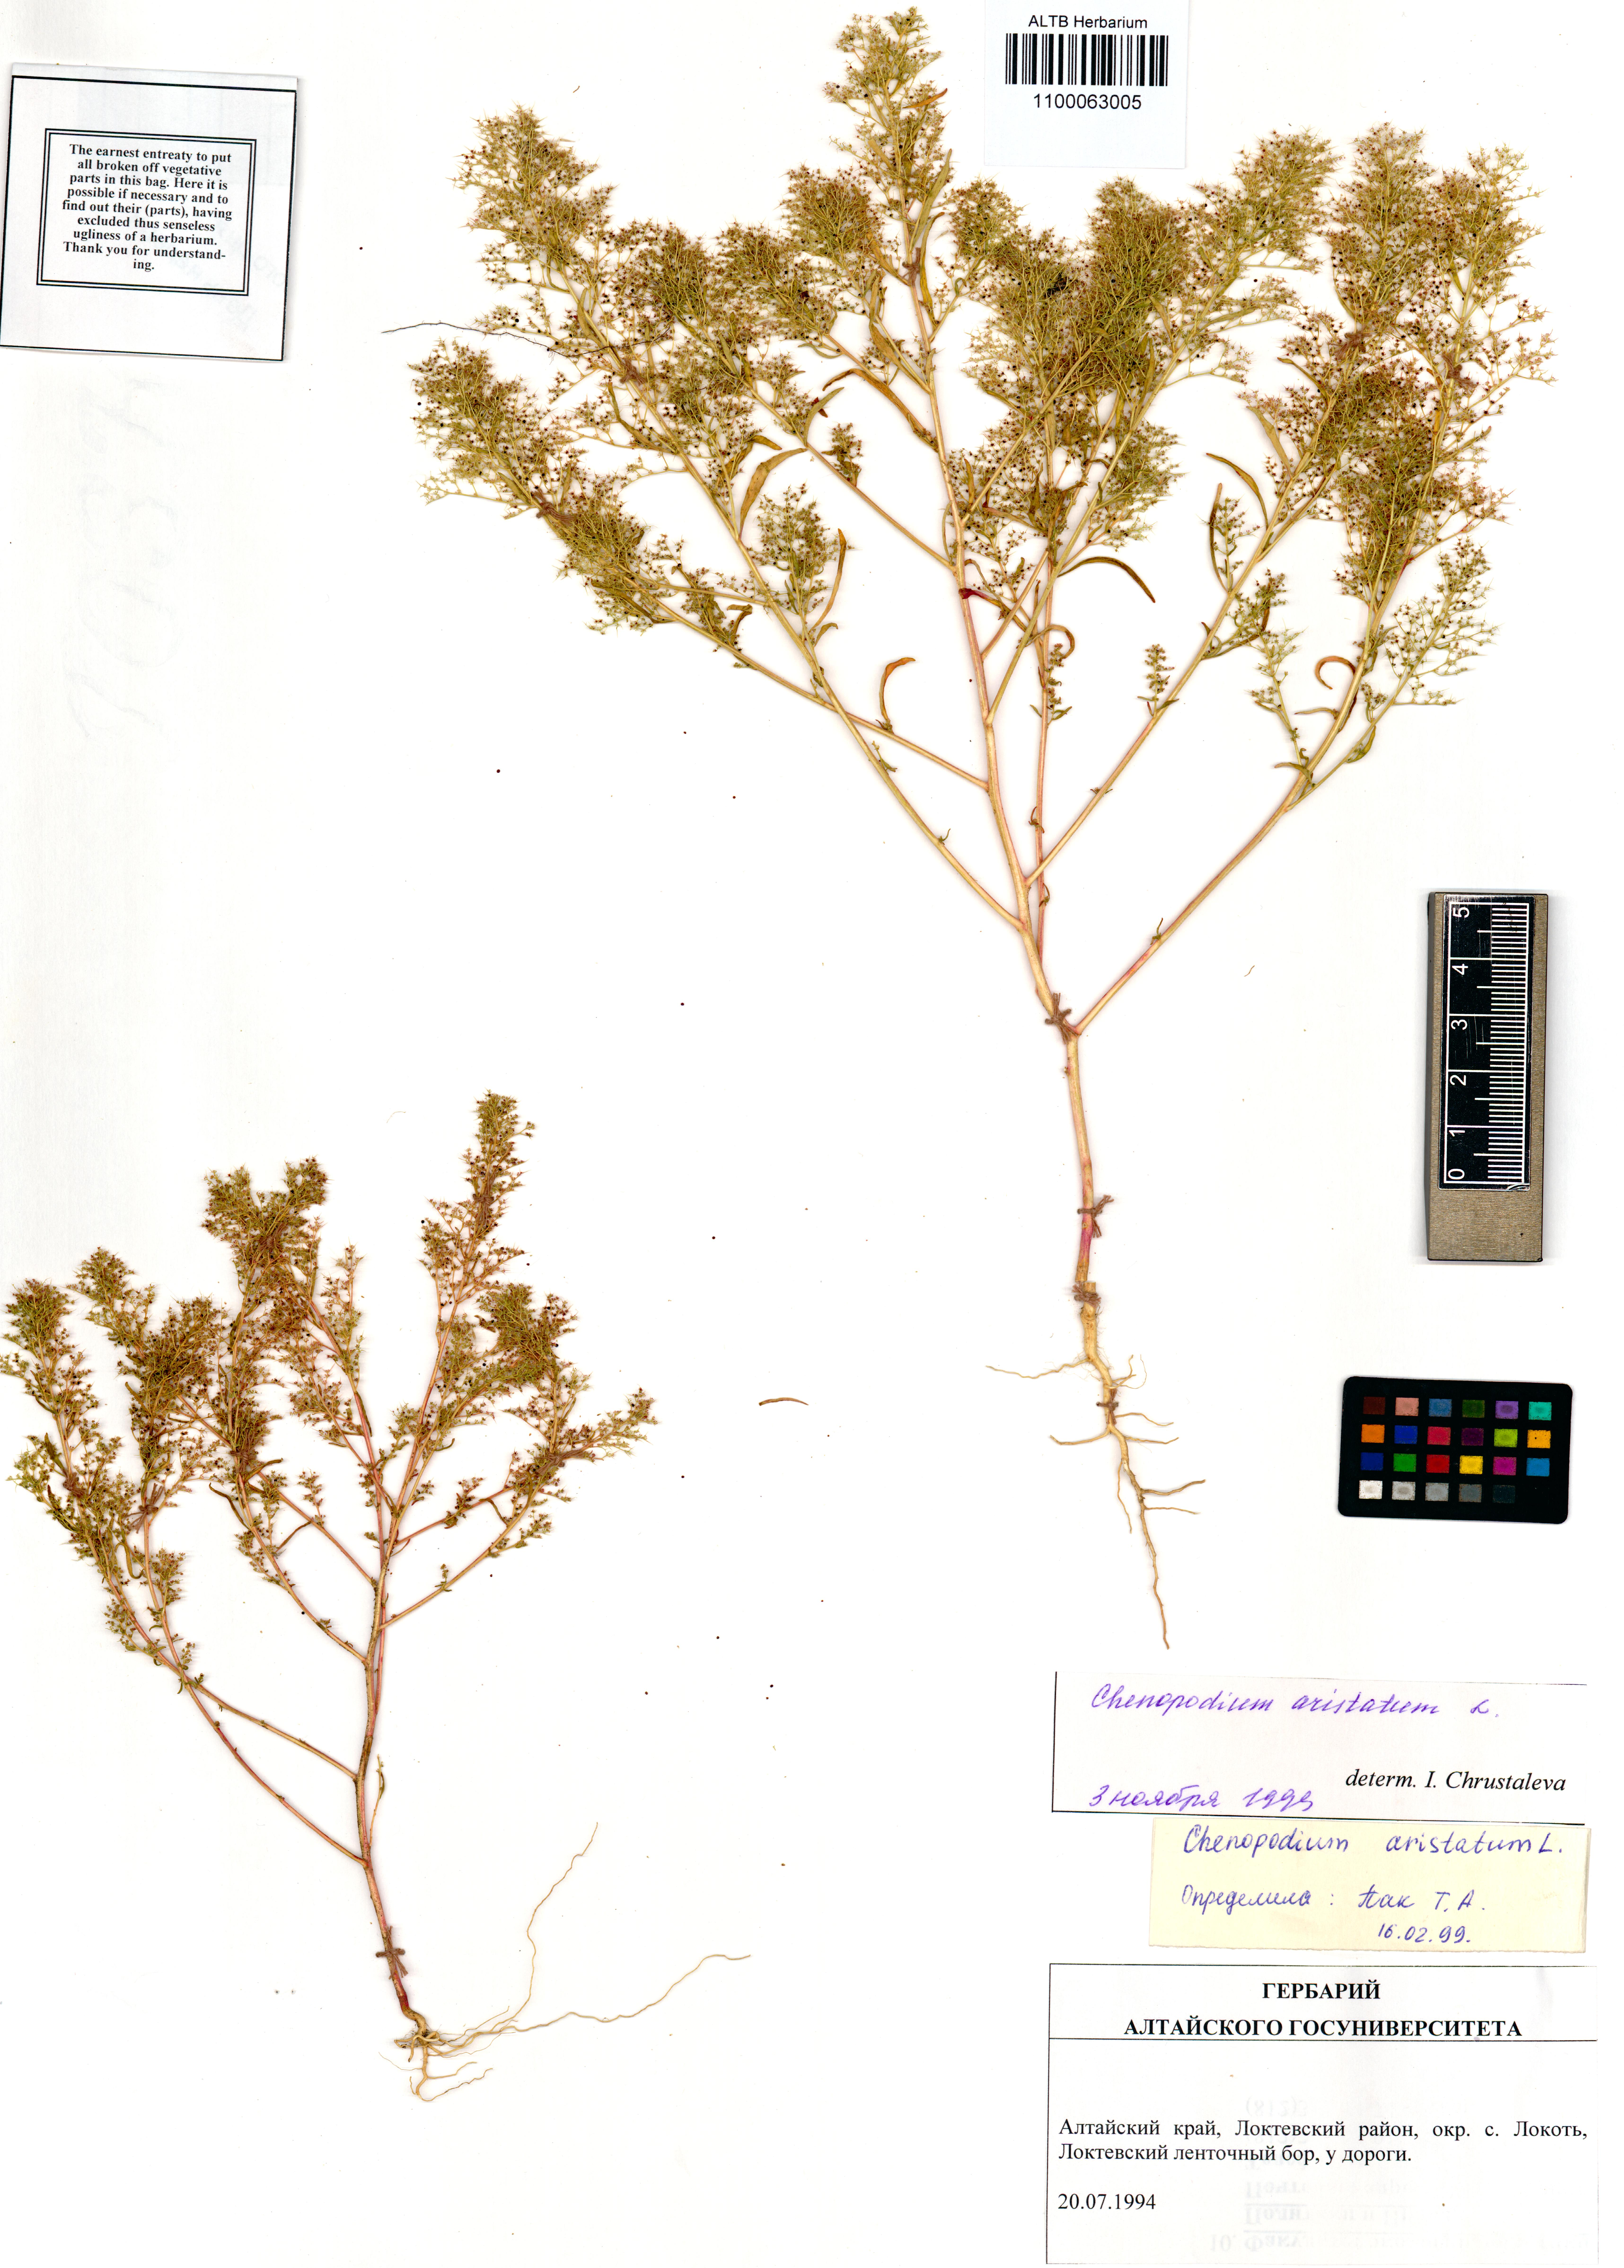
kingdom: Plantae
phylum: Tracheophyta
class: Magnoliopsida
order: Caryophyllales
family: Amaranthaceae
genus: Teloxys
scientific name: Teloxys aristata
